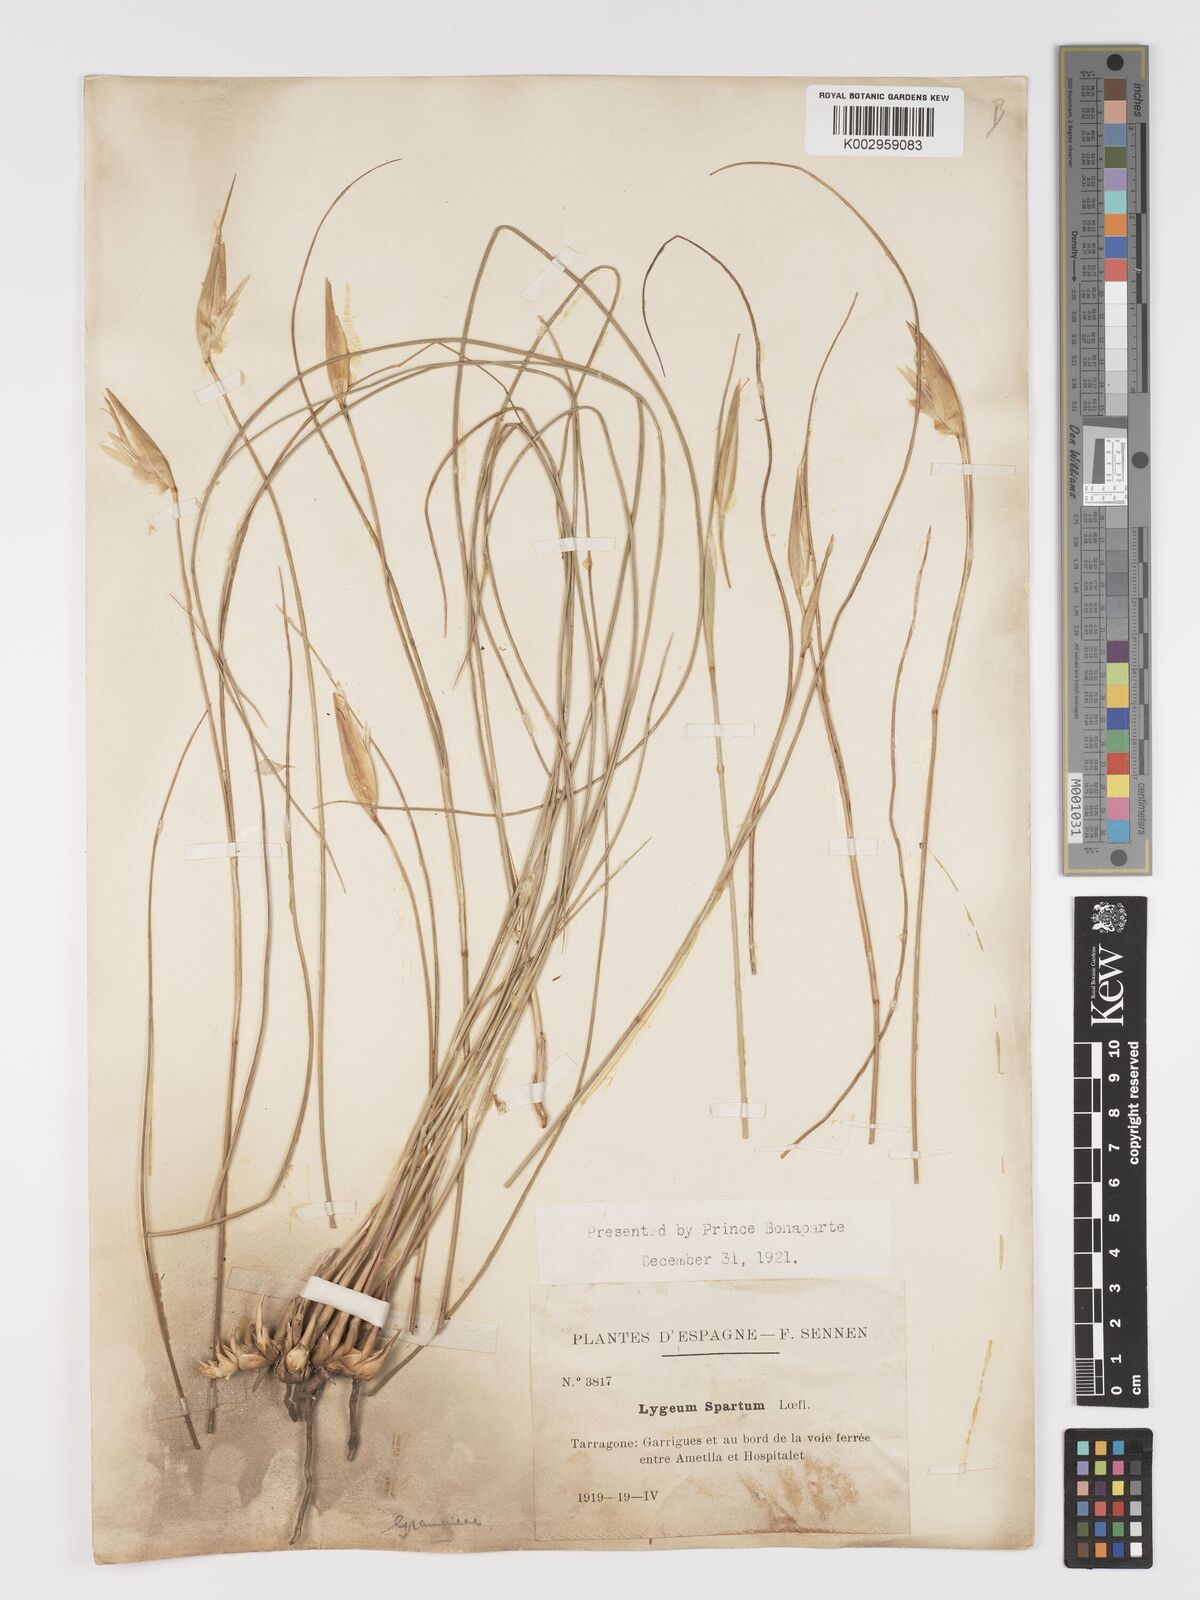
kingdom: Plantae
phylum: Tracheophyta
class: Liliopsida
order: Poales
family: Poaceae
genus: Lygeum
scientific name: Lygeum spartum
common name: Albardine
